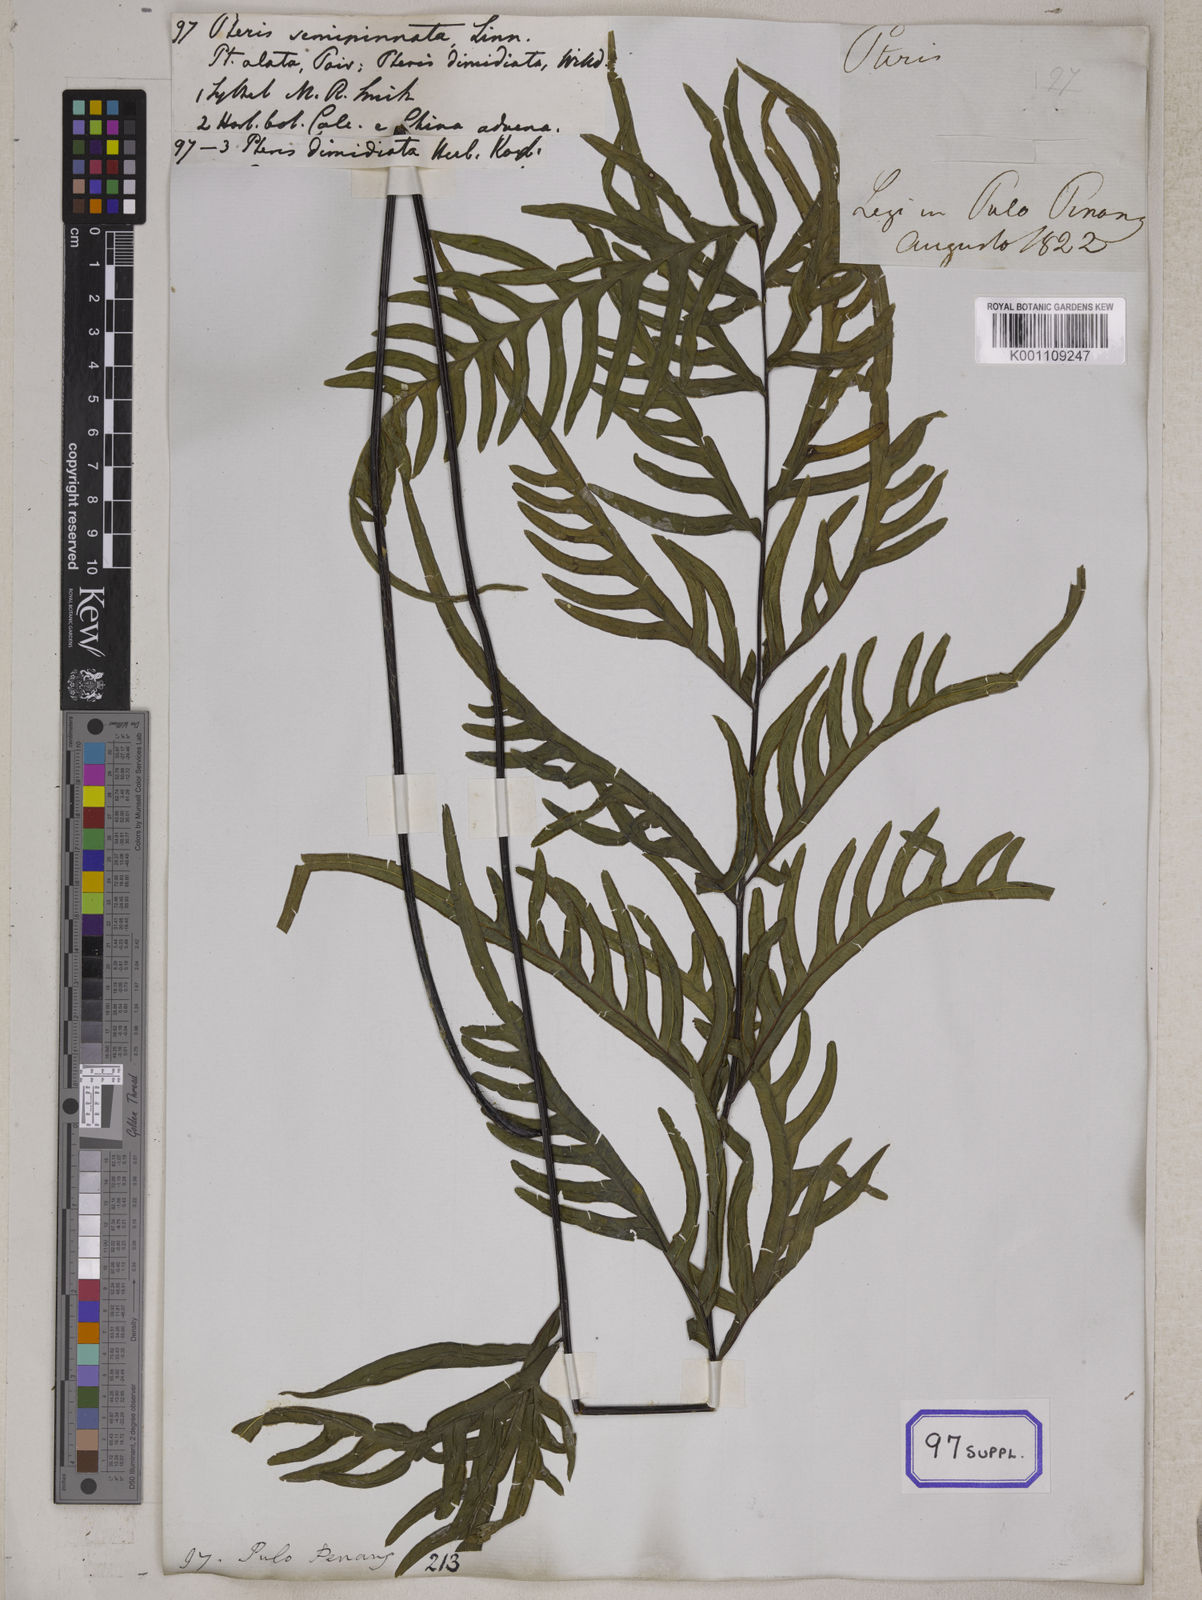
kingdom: Plantae
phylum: Tracheophyta
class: Polypodiopsida
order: Polypodiales
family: Pteridaceae
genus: Pteris
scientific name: Pteris semipinnata
